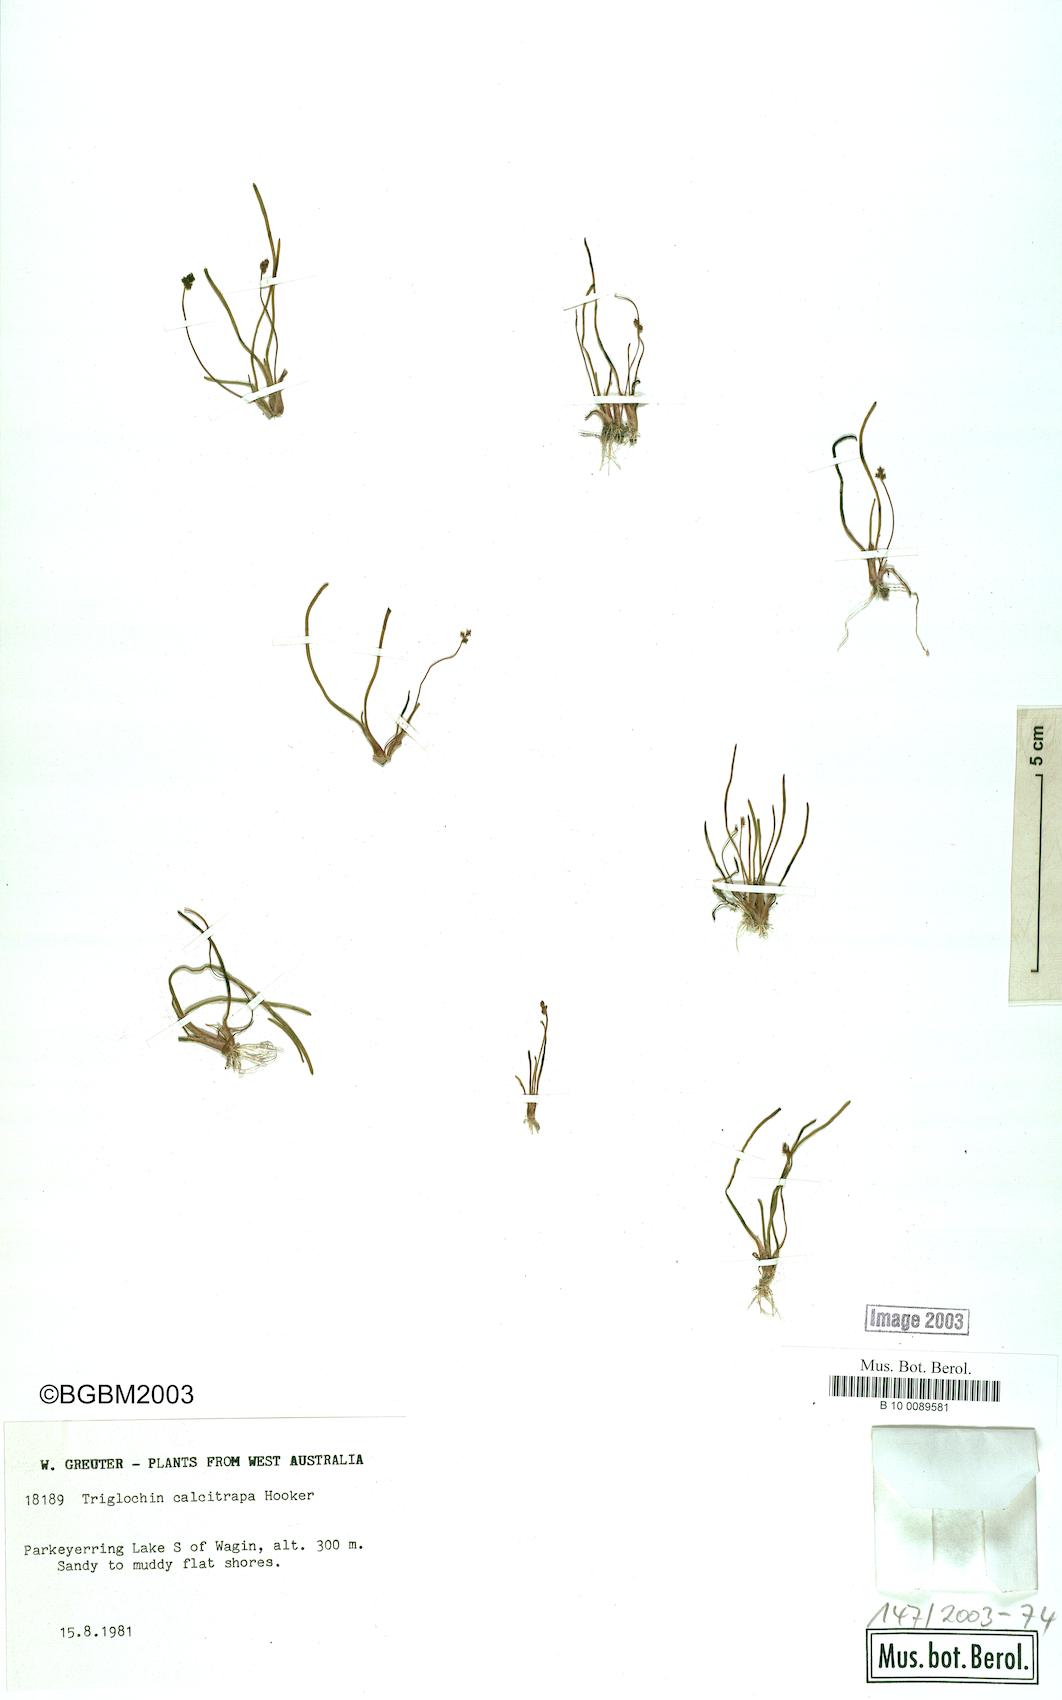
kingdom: Plantae
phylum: Tracheophyta
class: Liliopsida
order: Alismatales
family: Juncaginaceae
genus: Triglochin
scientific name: Triglochin calcitrapa
